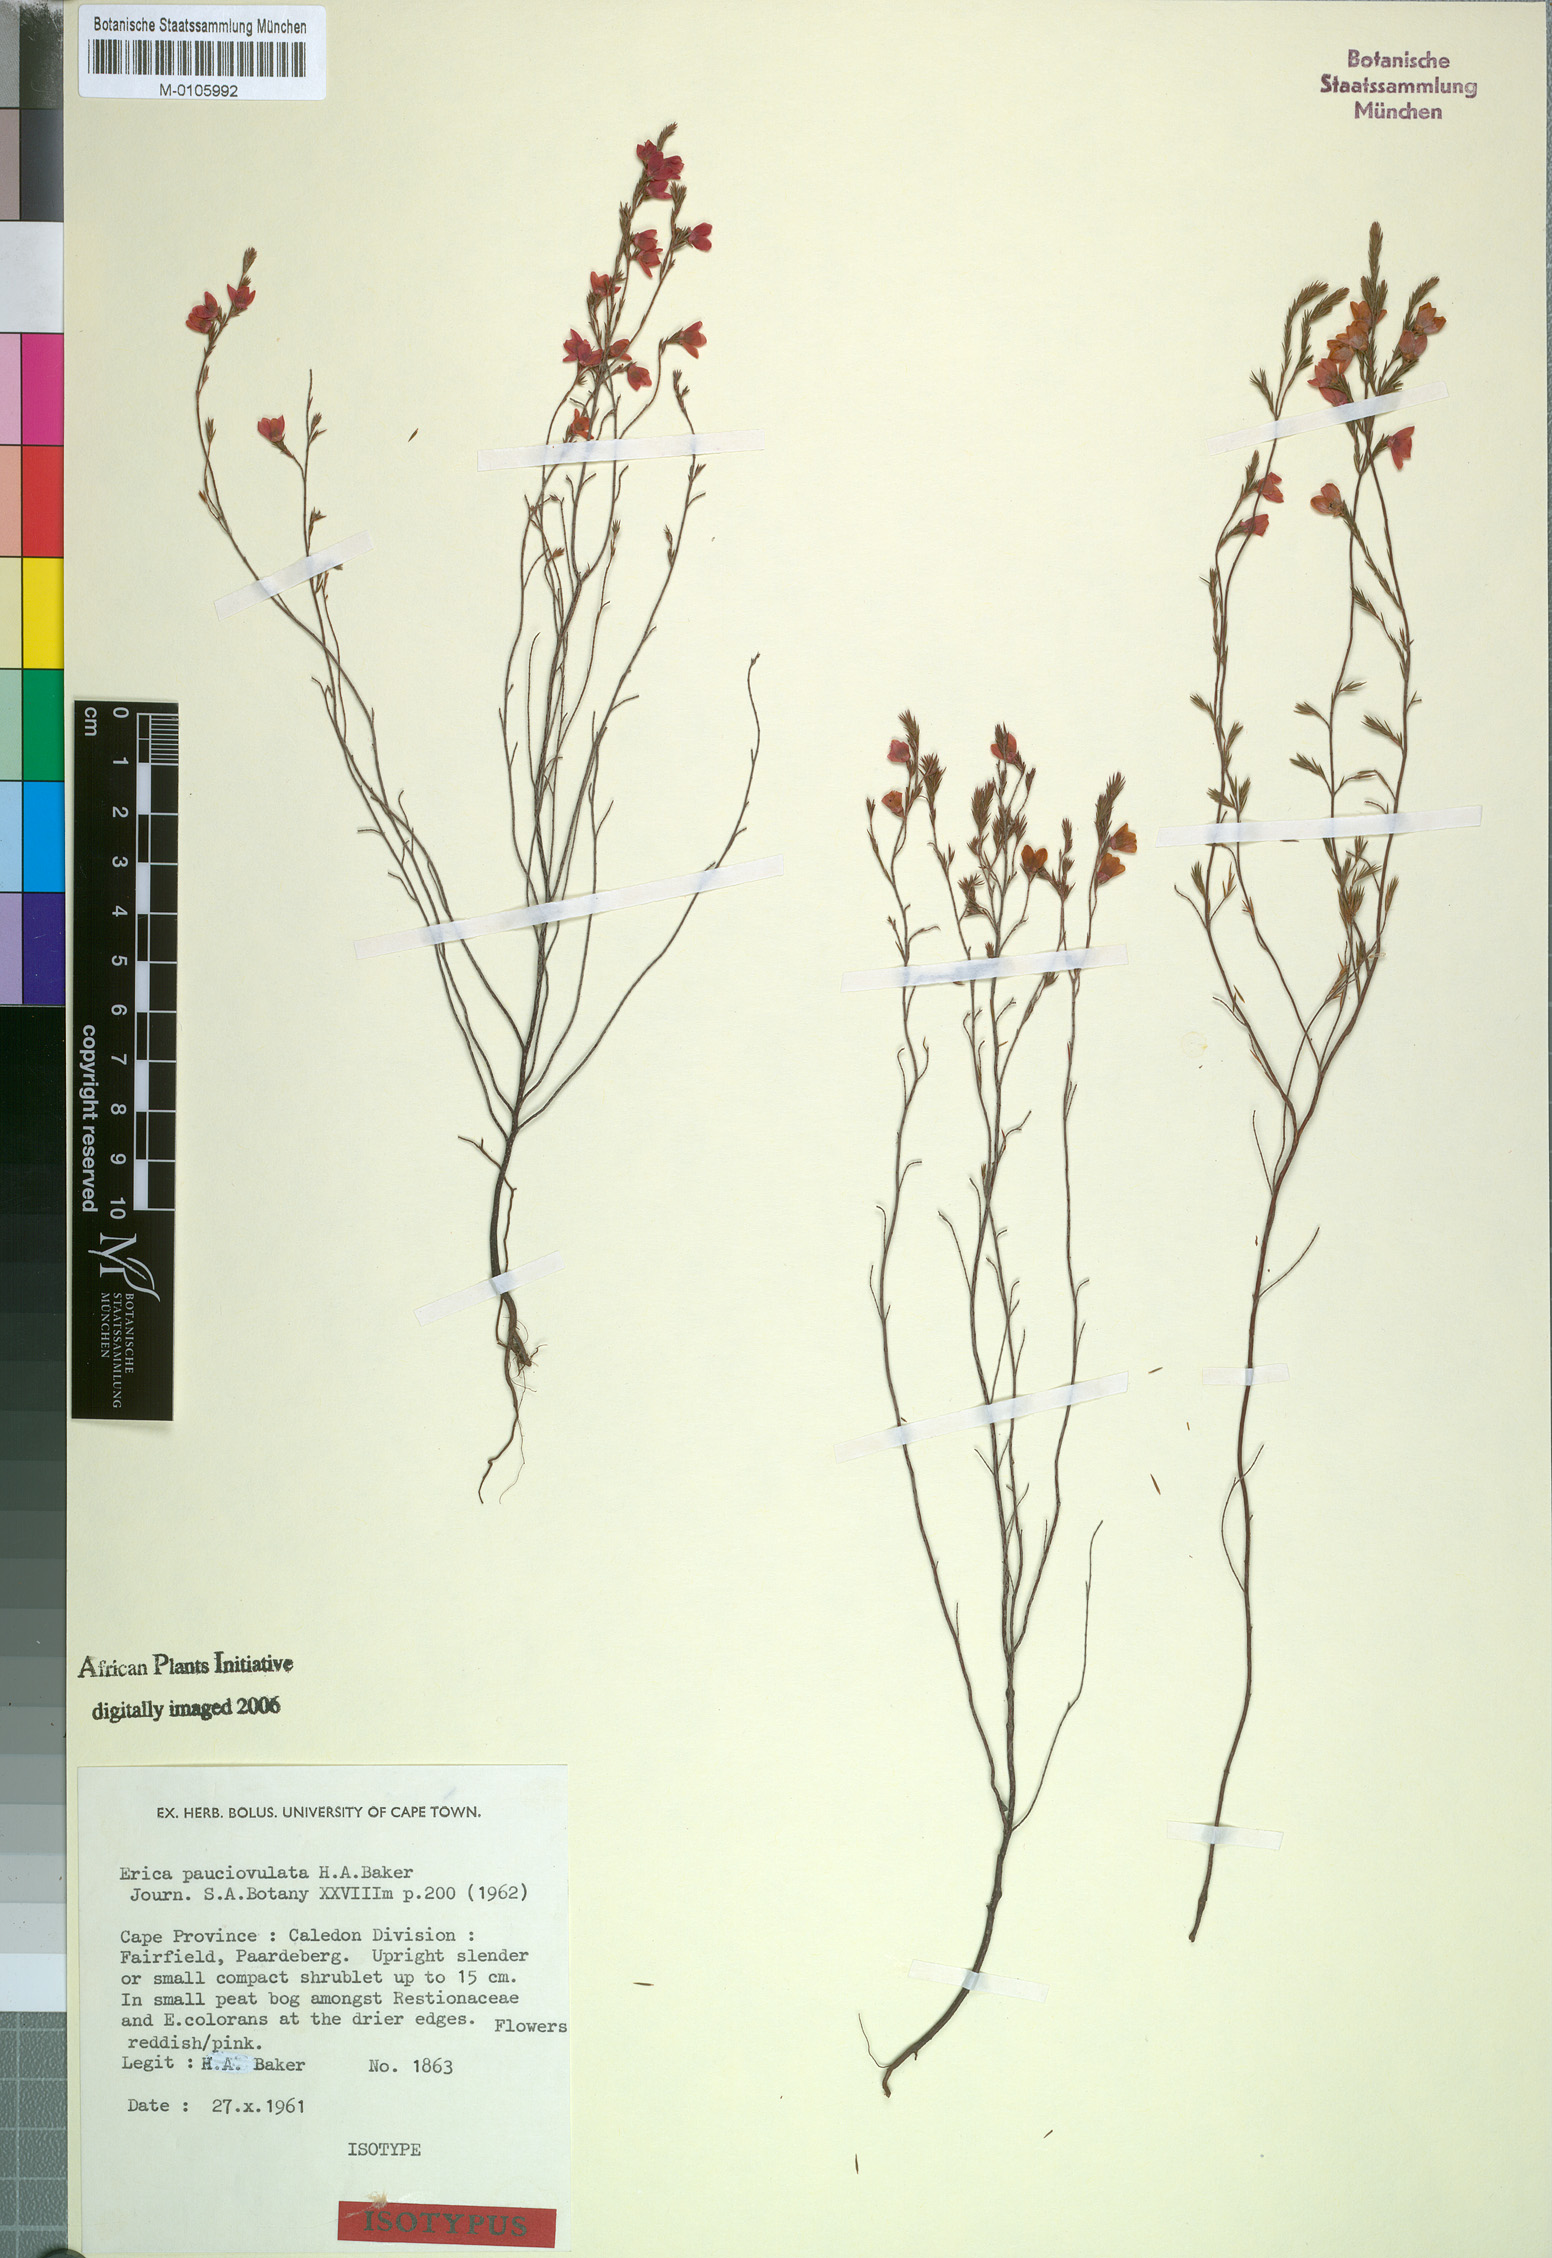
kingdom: Plantae
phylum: Tracheophyta
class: Magnoliopsida
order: Ericales
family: Ericaceae
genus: Erica
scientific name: Erica pauciovulata
